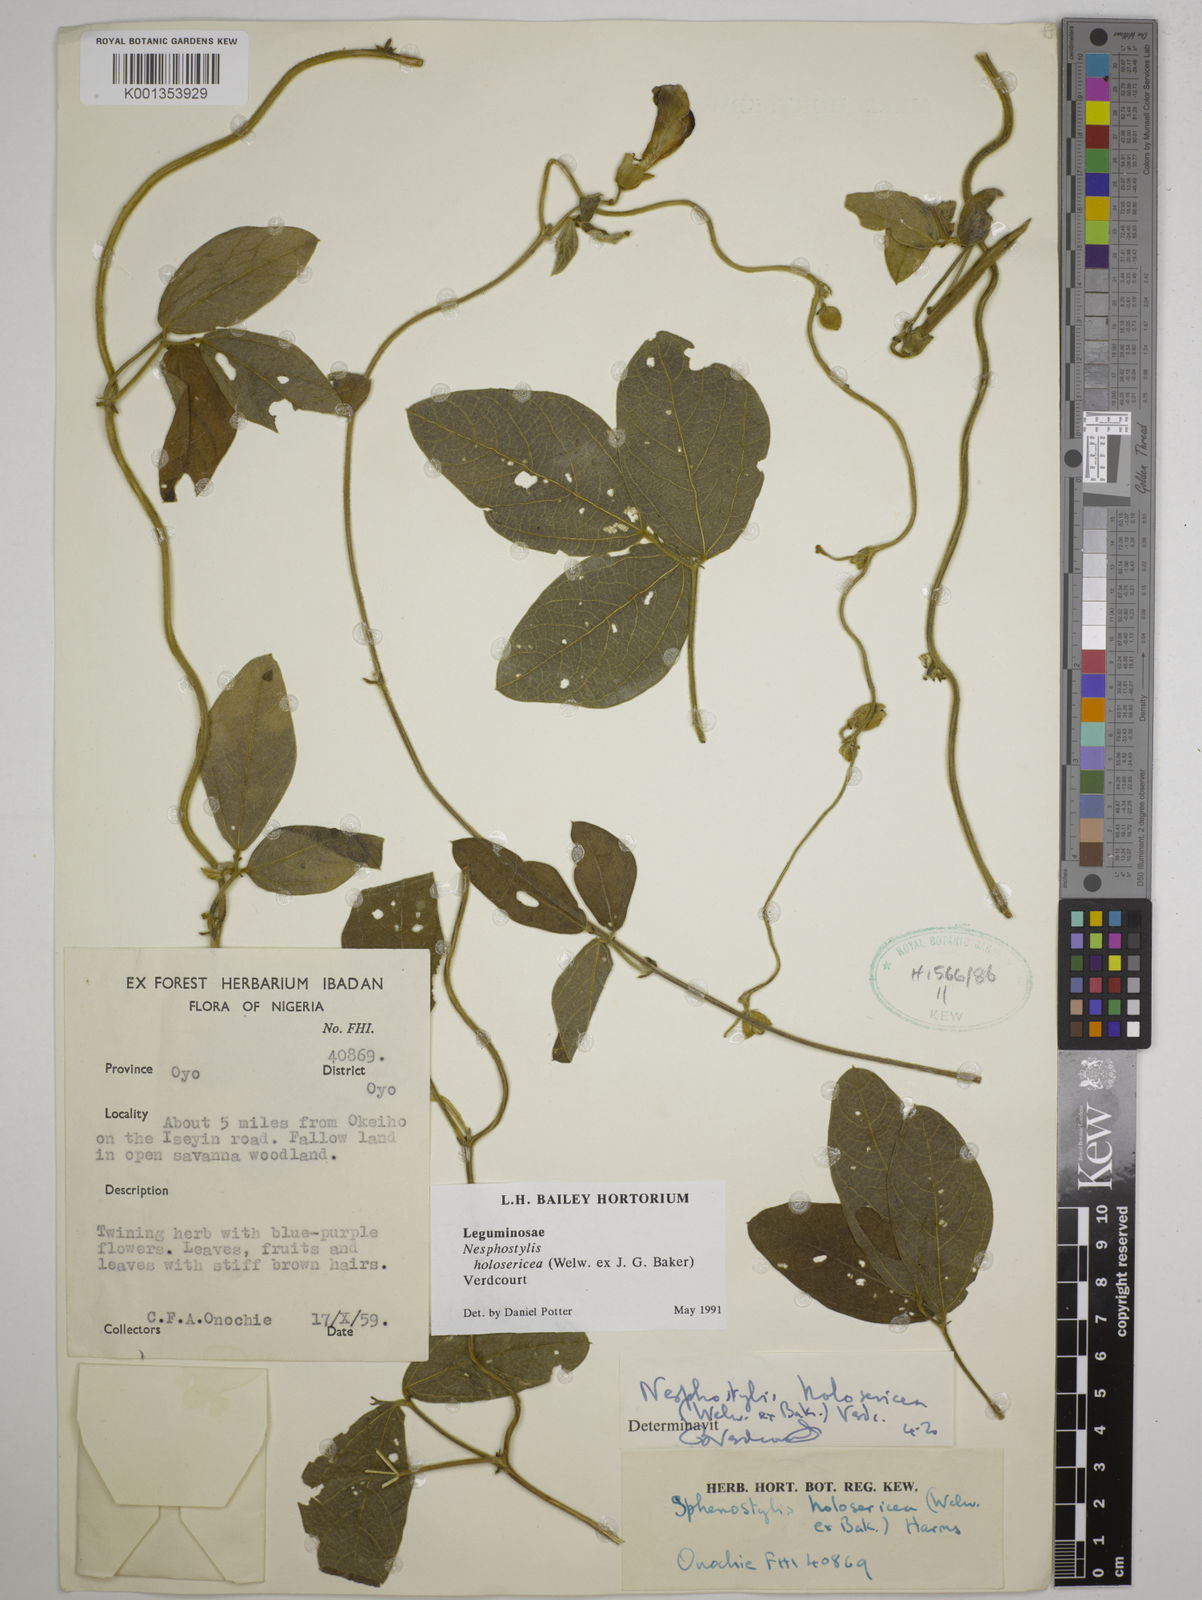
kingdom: Plantae
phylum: Tracheophyta
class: Magnoliopsida
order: Fabales
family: Fabaceae
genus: Nesphostylis
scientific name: Nesphostylis holosericea
